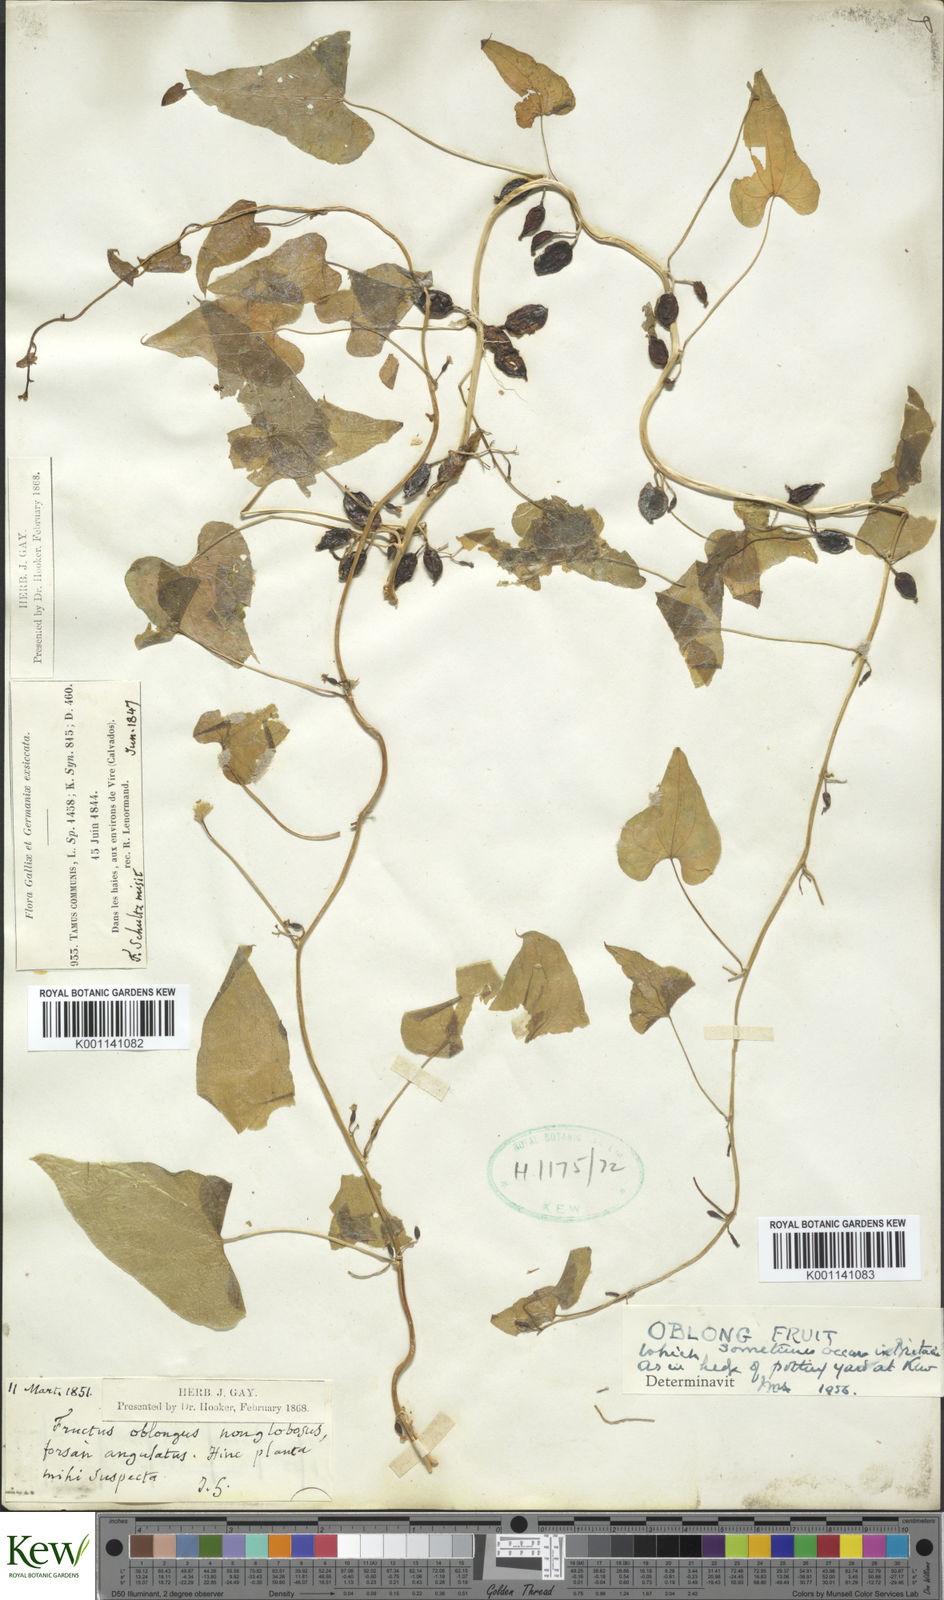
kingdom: Plantae
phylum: Tracheophyta
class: Liliopsida
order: Dioscoreales
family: Dioscoreaceae
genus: Dioscorea
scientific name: Dioscorea communis
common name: Black-bindweed
